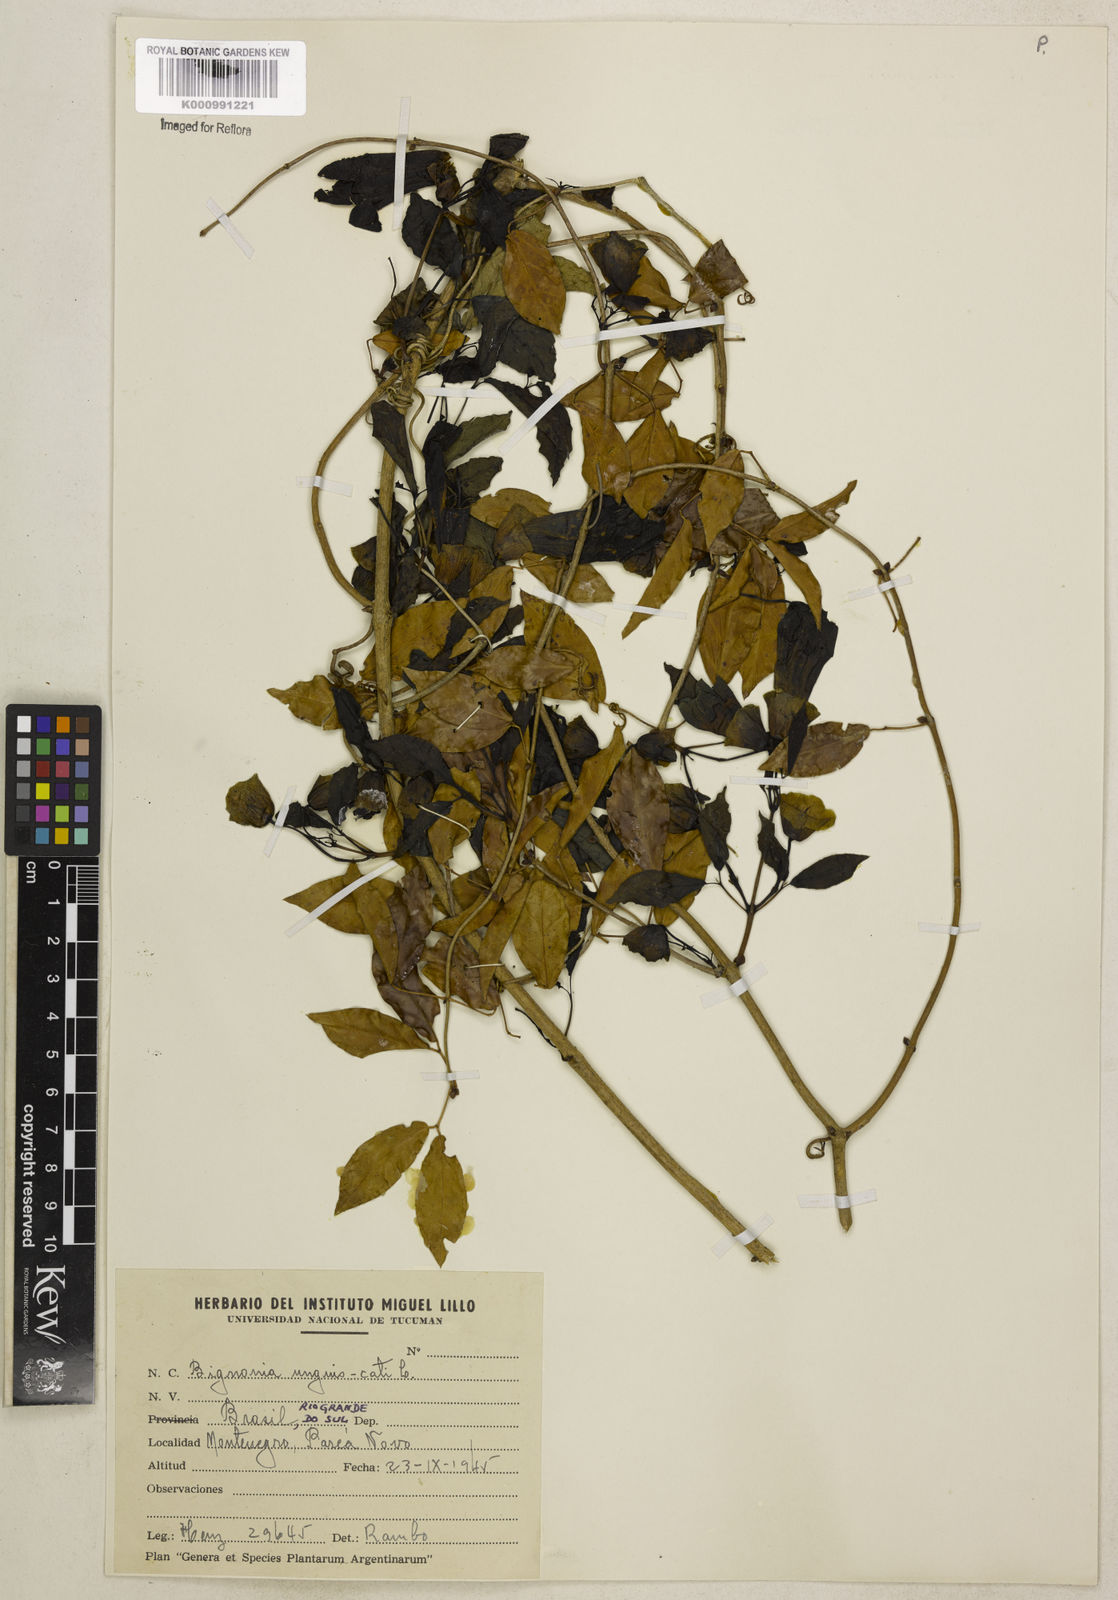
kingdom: Plantae
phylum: Tracheophyta
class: Magnoliopsida
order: Lamiales
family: Bignoniaceae
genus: Dolichandra
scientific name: Dolichandra unguis-cati
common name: Catclaw vine
